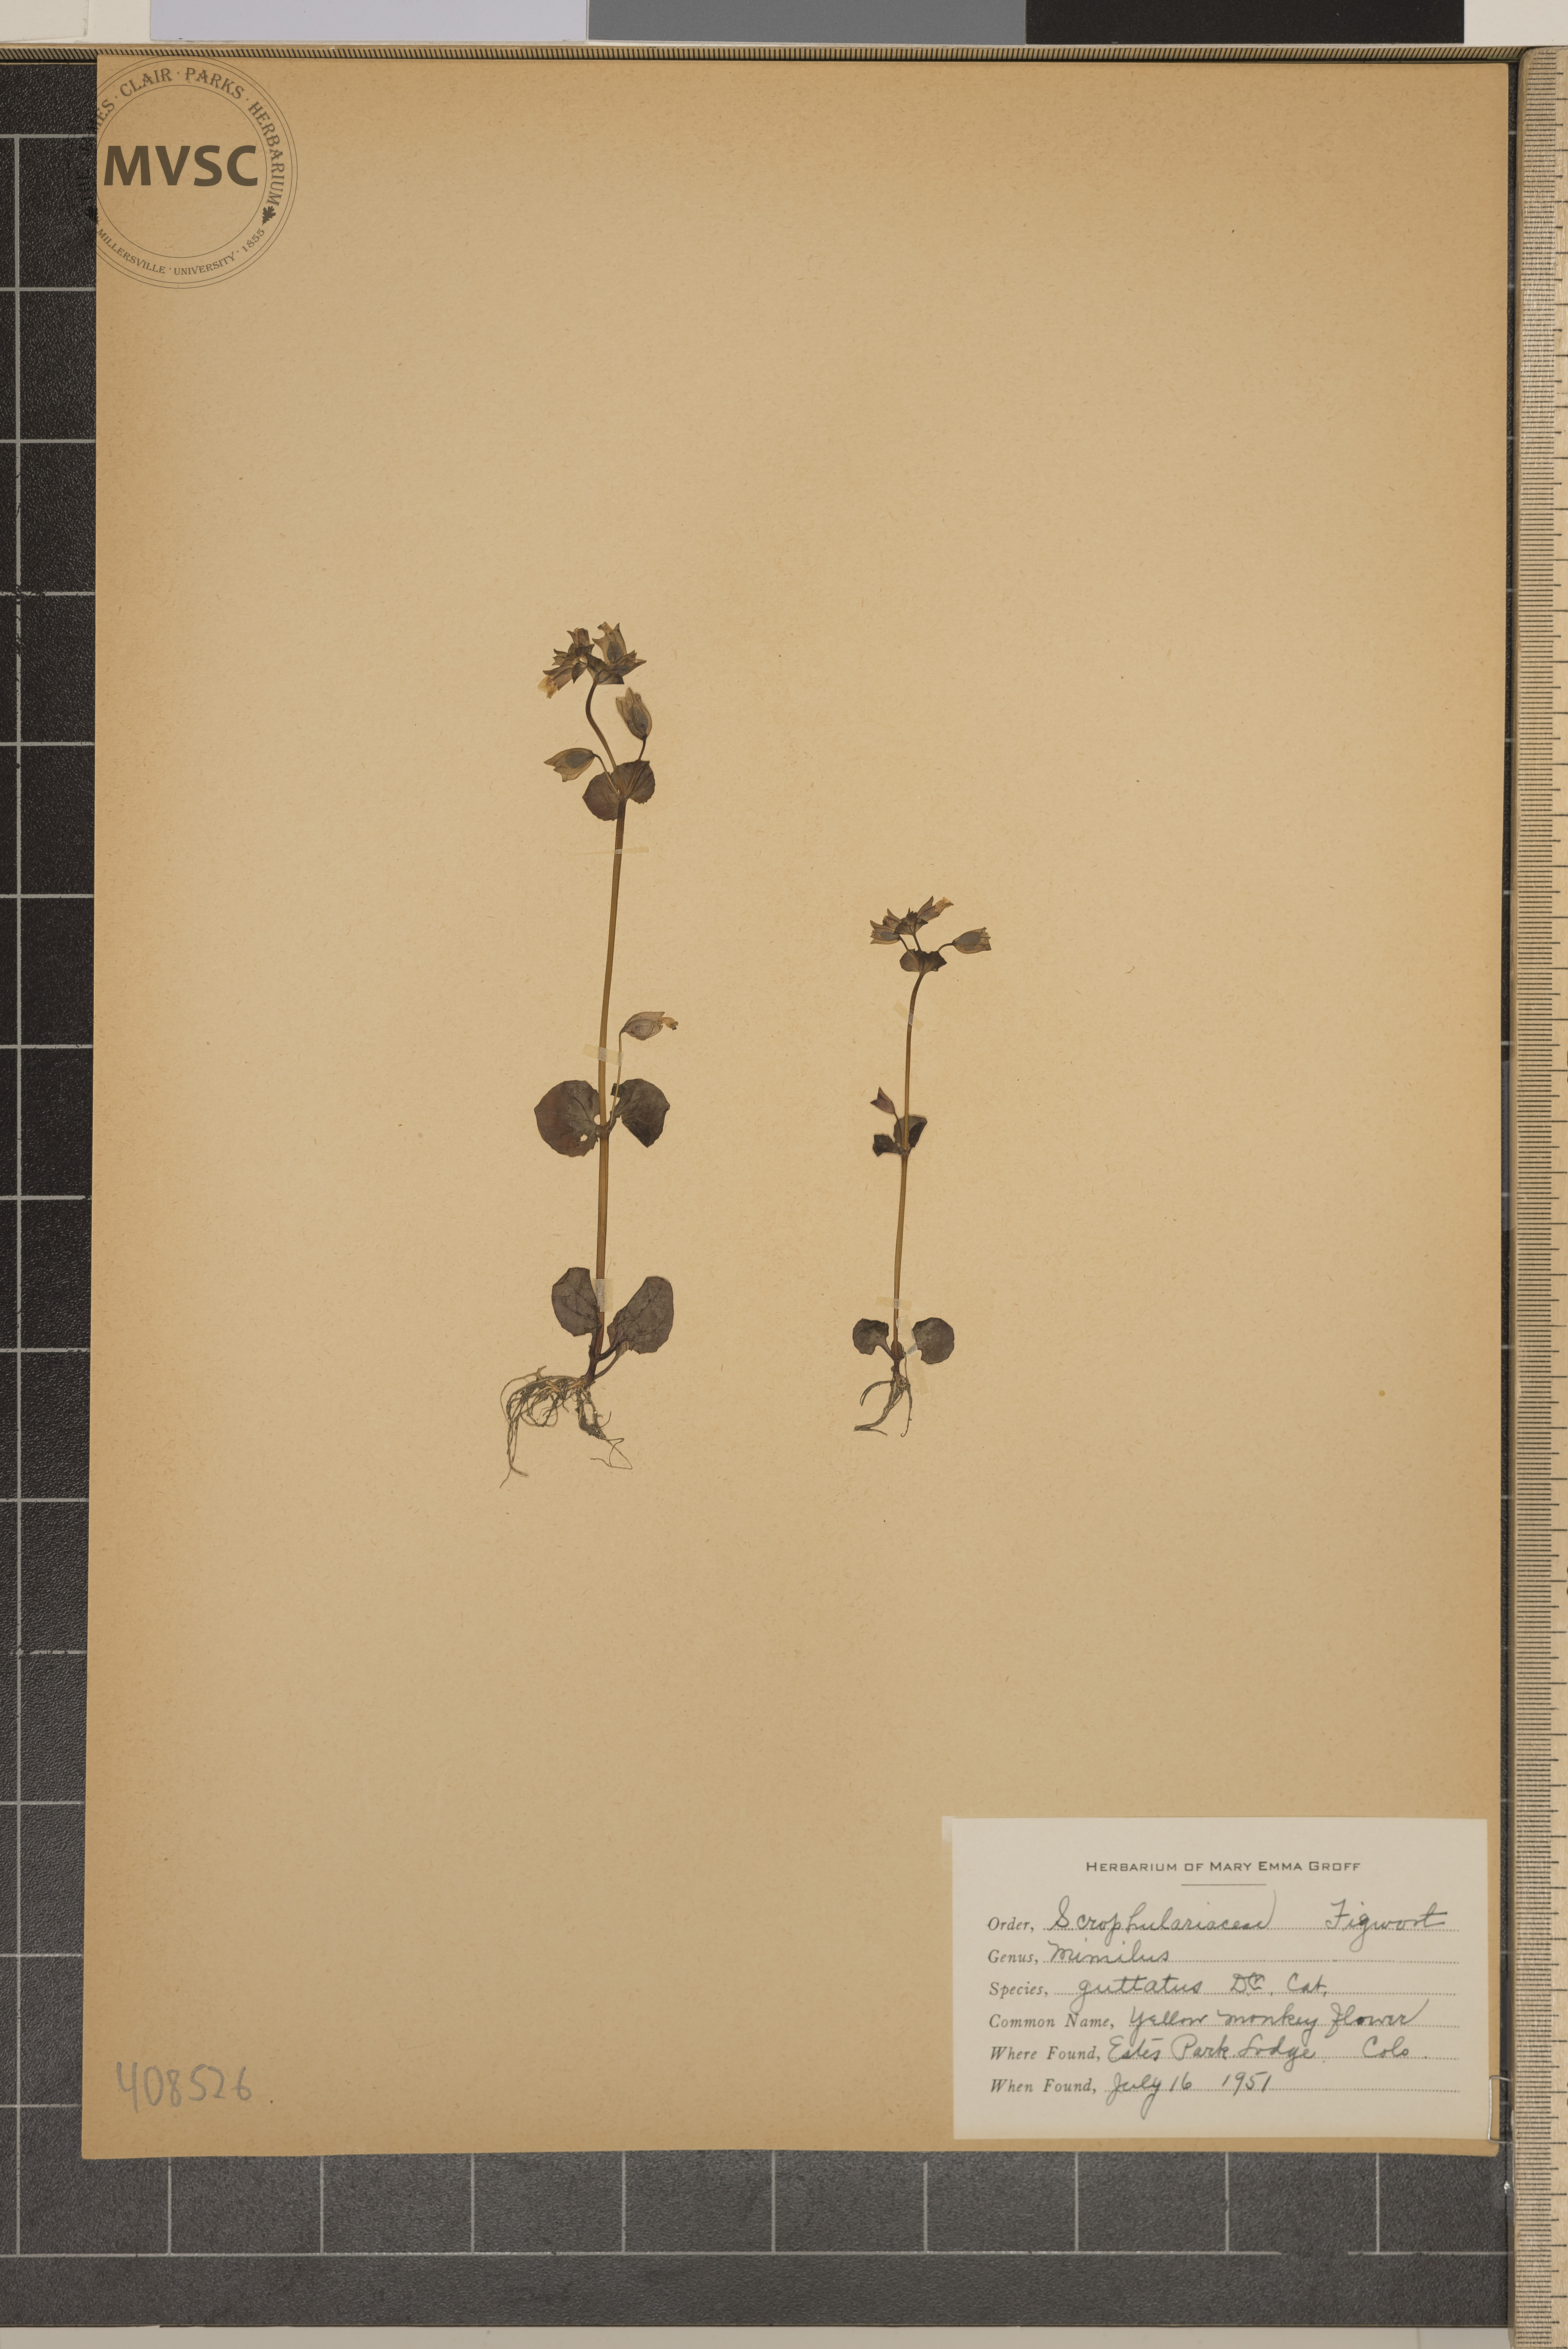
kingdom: Plantae
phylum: Tracheophyta
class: Magnoliopsida
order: Lamiales
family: Phrymaceae
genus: Erythranthe
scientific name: Erythranthe
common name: Yellow Monkey Flower
